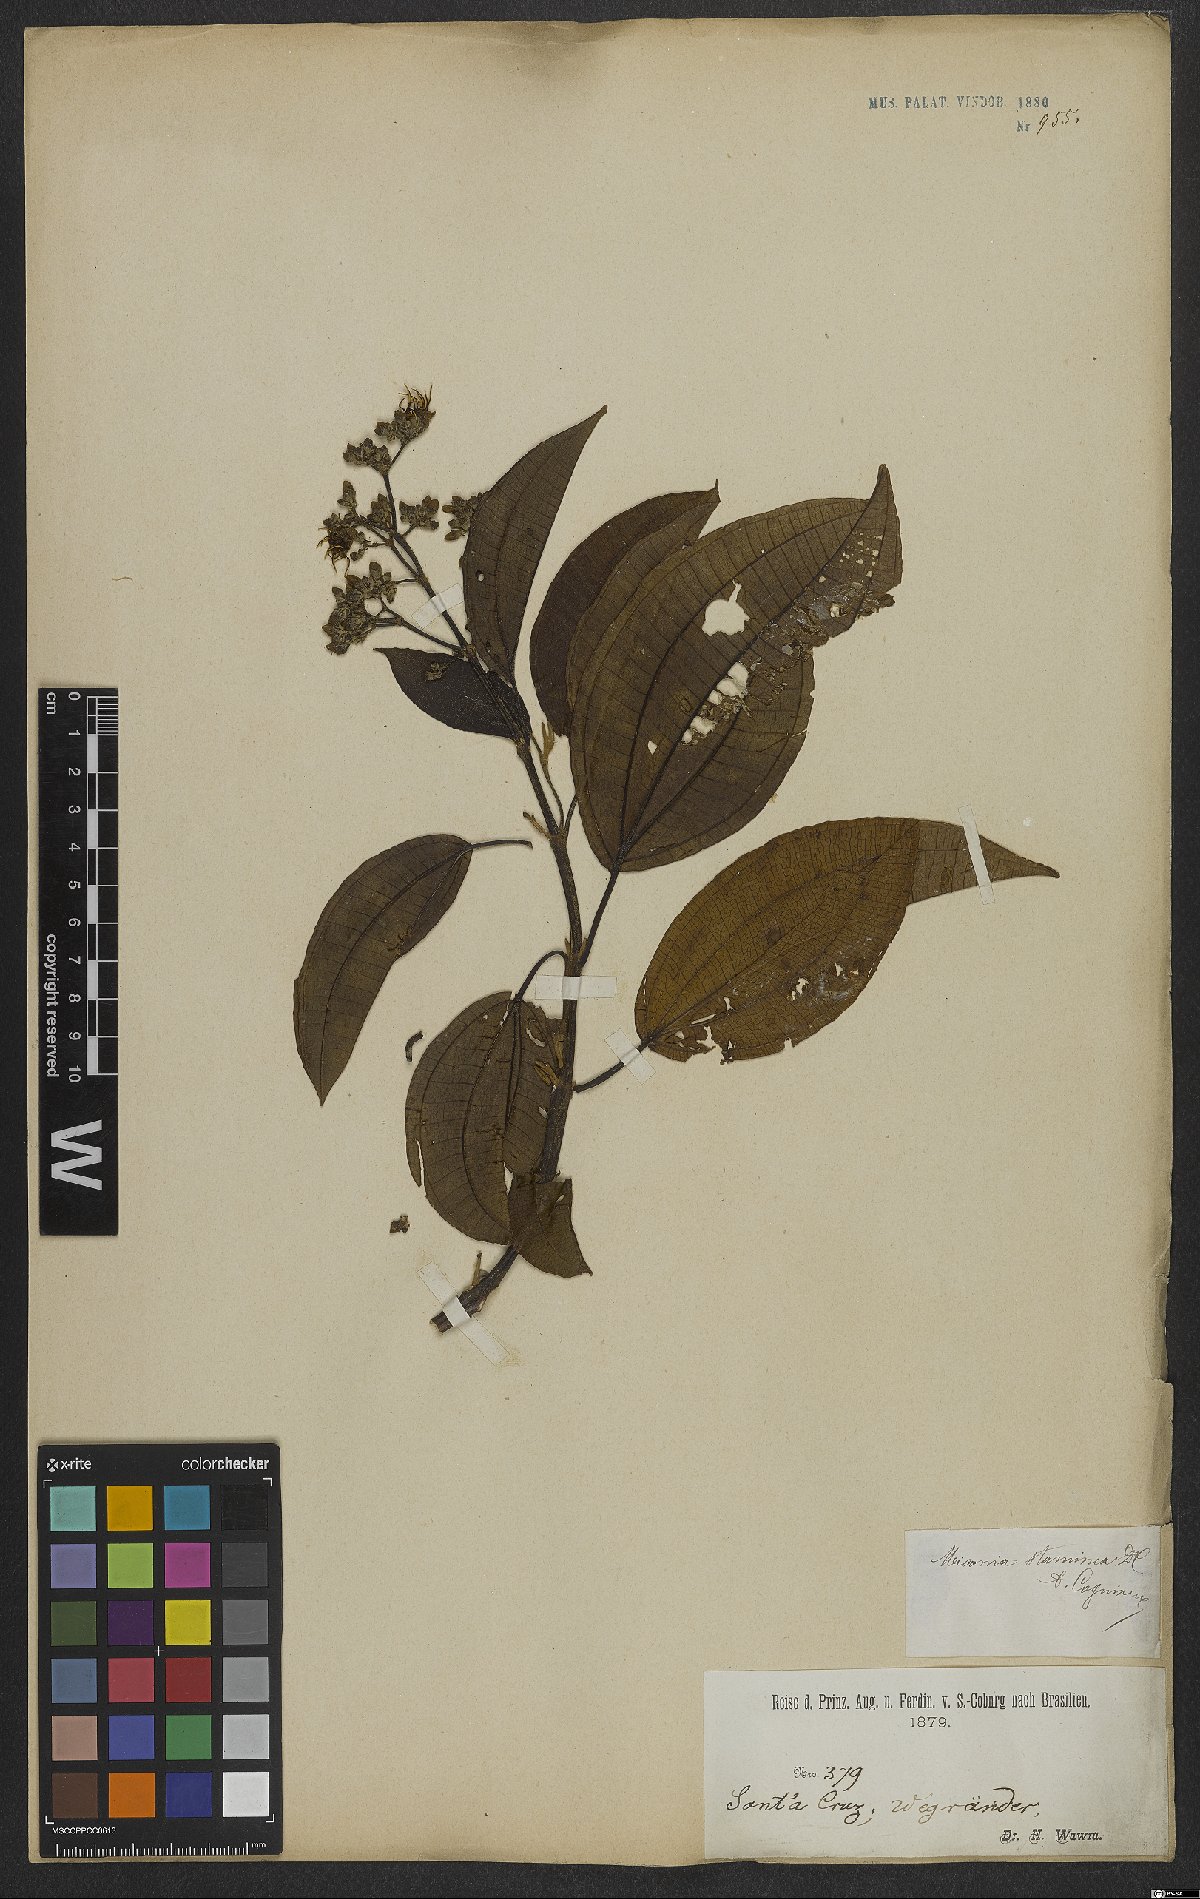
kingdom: Plantae
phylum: Tracheophyta
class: Magnoliopsida
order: Myrtales
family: Melastomataceae
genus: Miconia
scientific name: Miconia staminea
